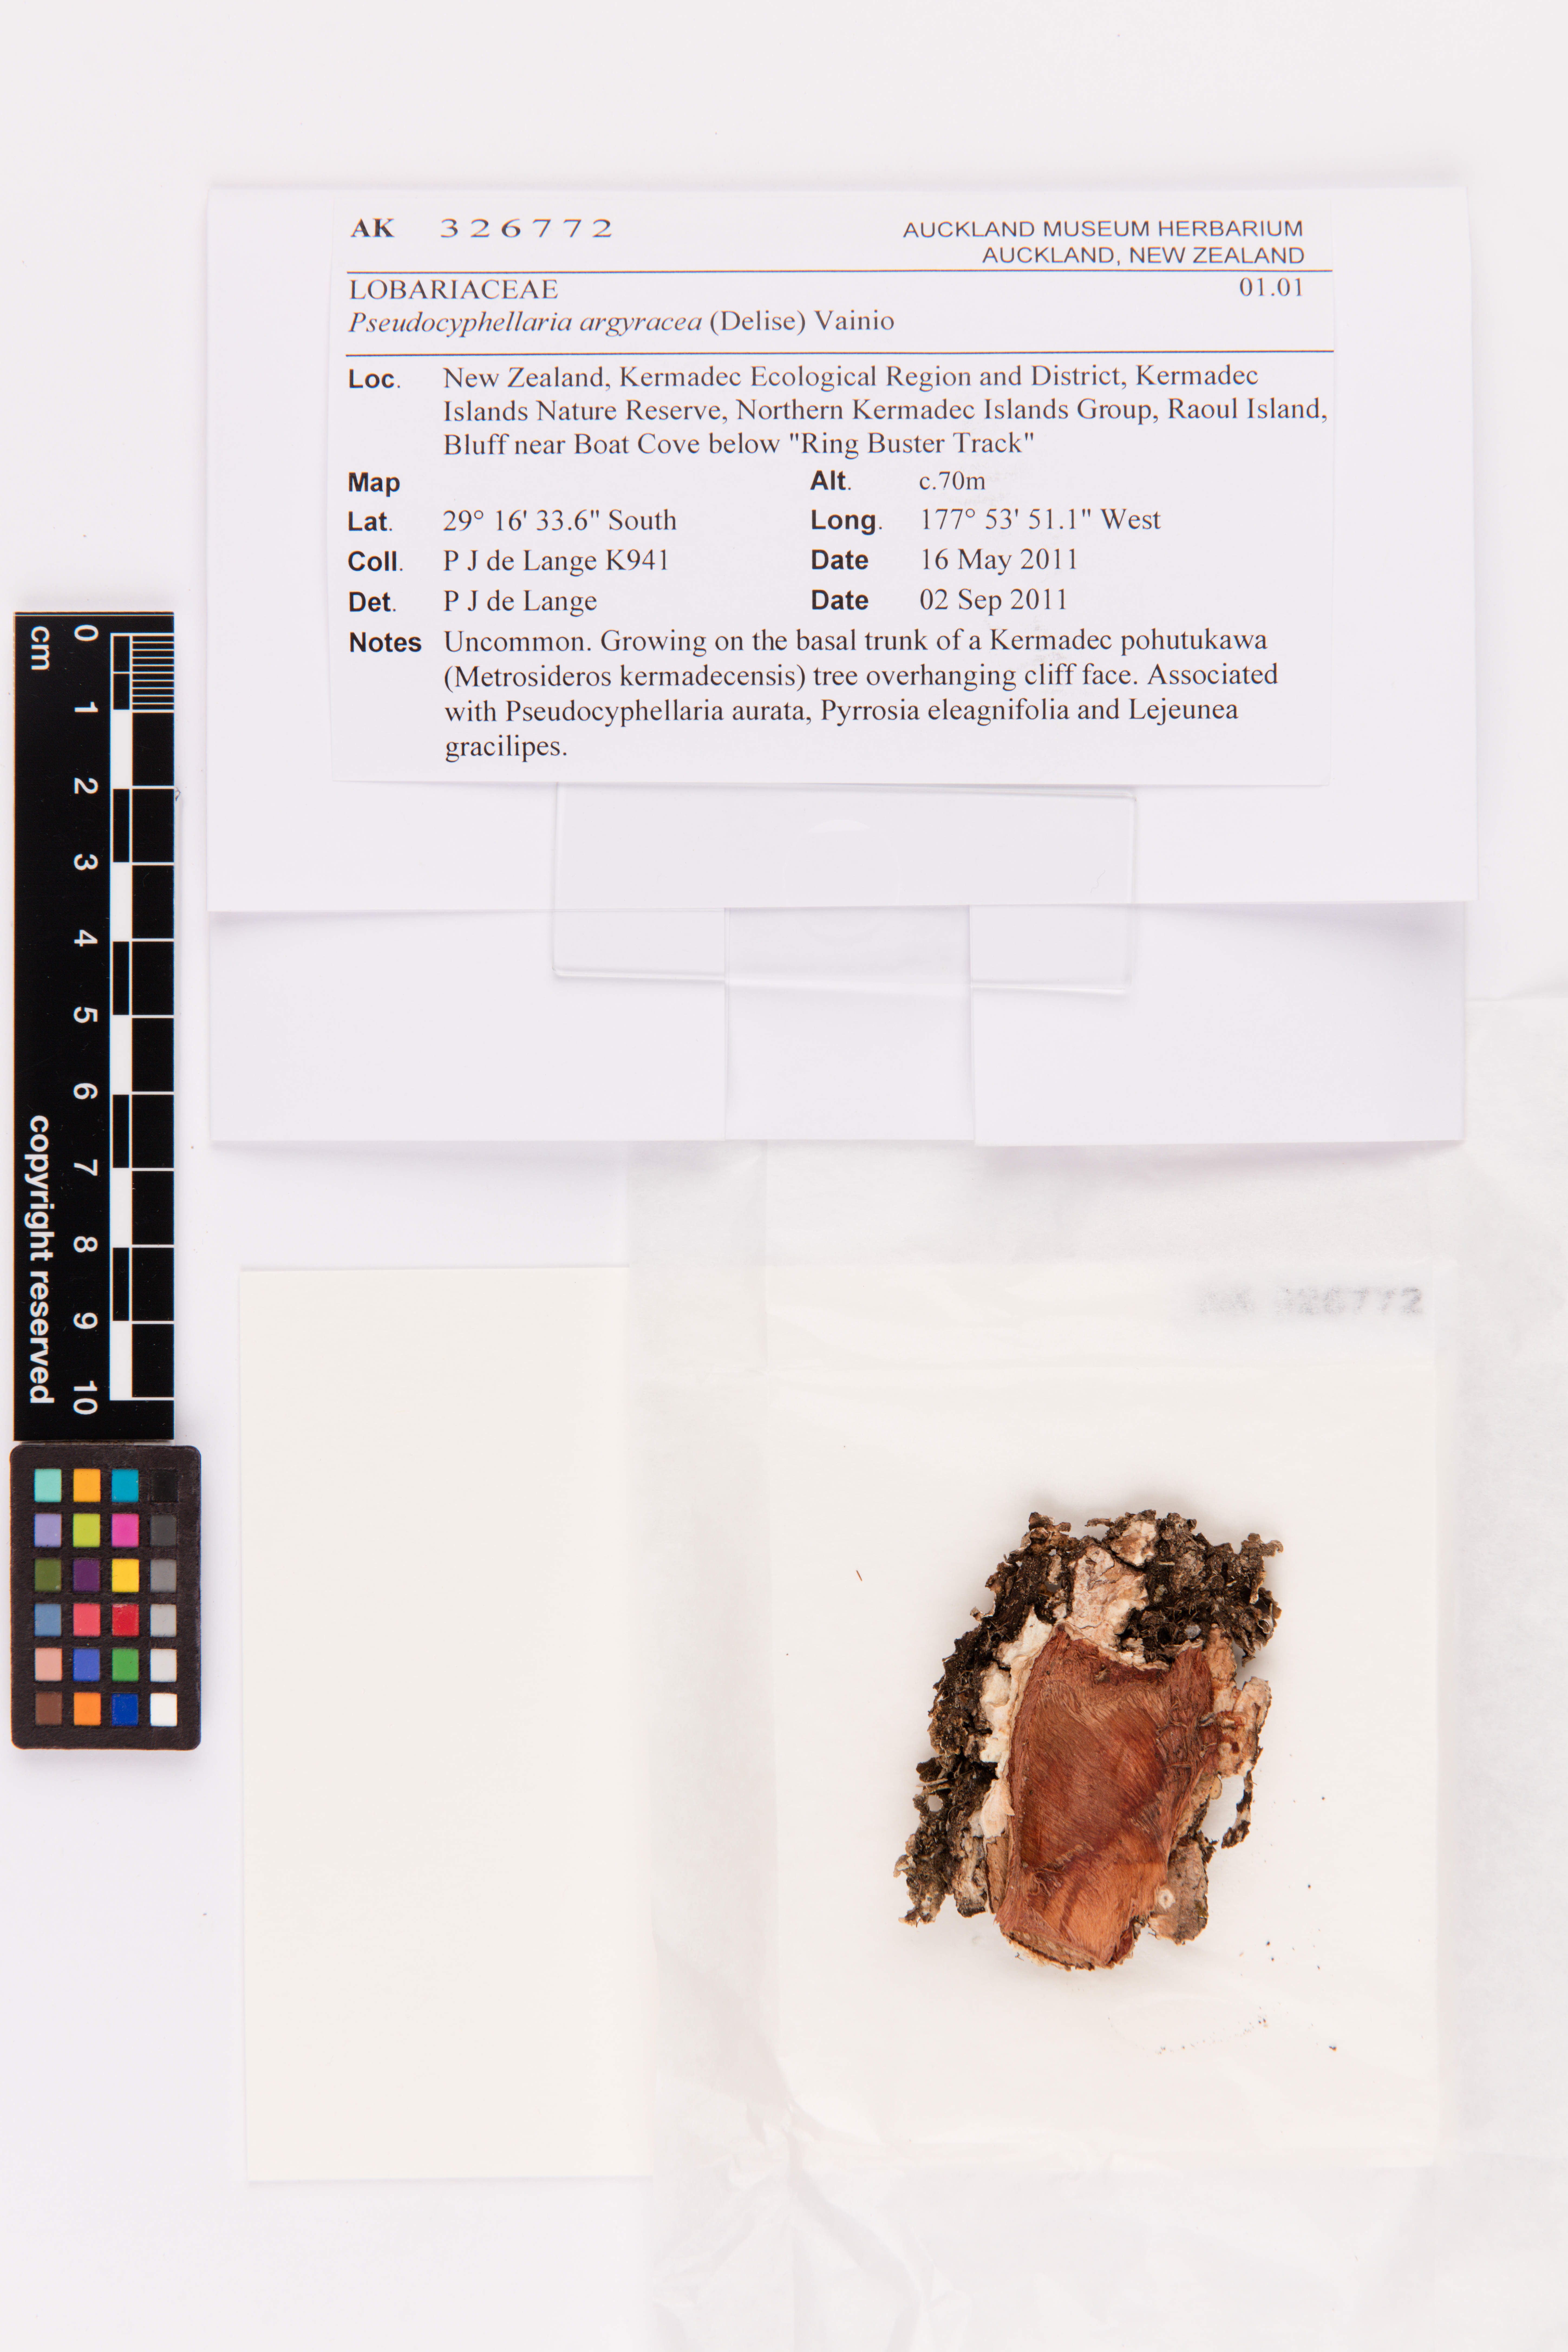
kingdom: Fungi
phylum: Ascomycota
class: Lecanoromycetes
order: Peltigerales
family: Lobariaceae
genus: Pseudocyphellaria
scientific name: Pseudocyphellaria argyracea
